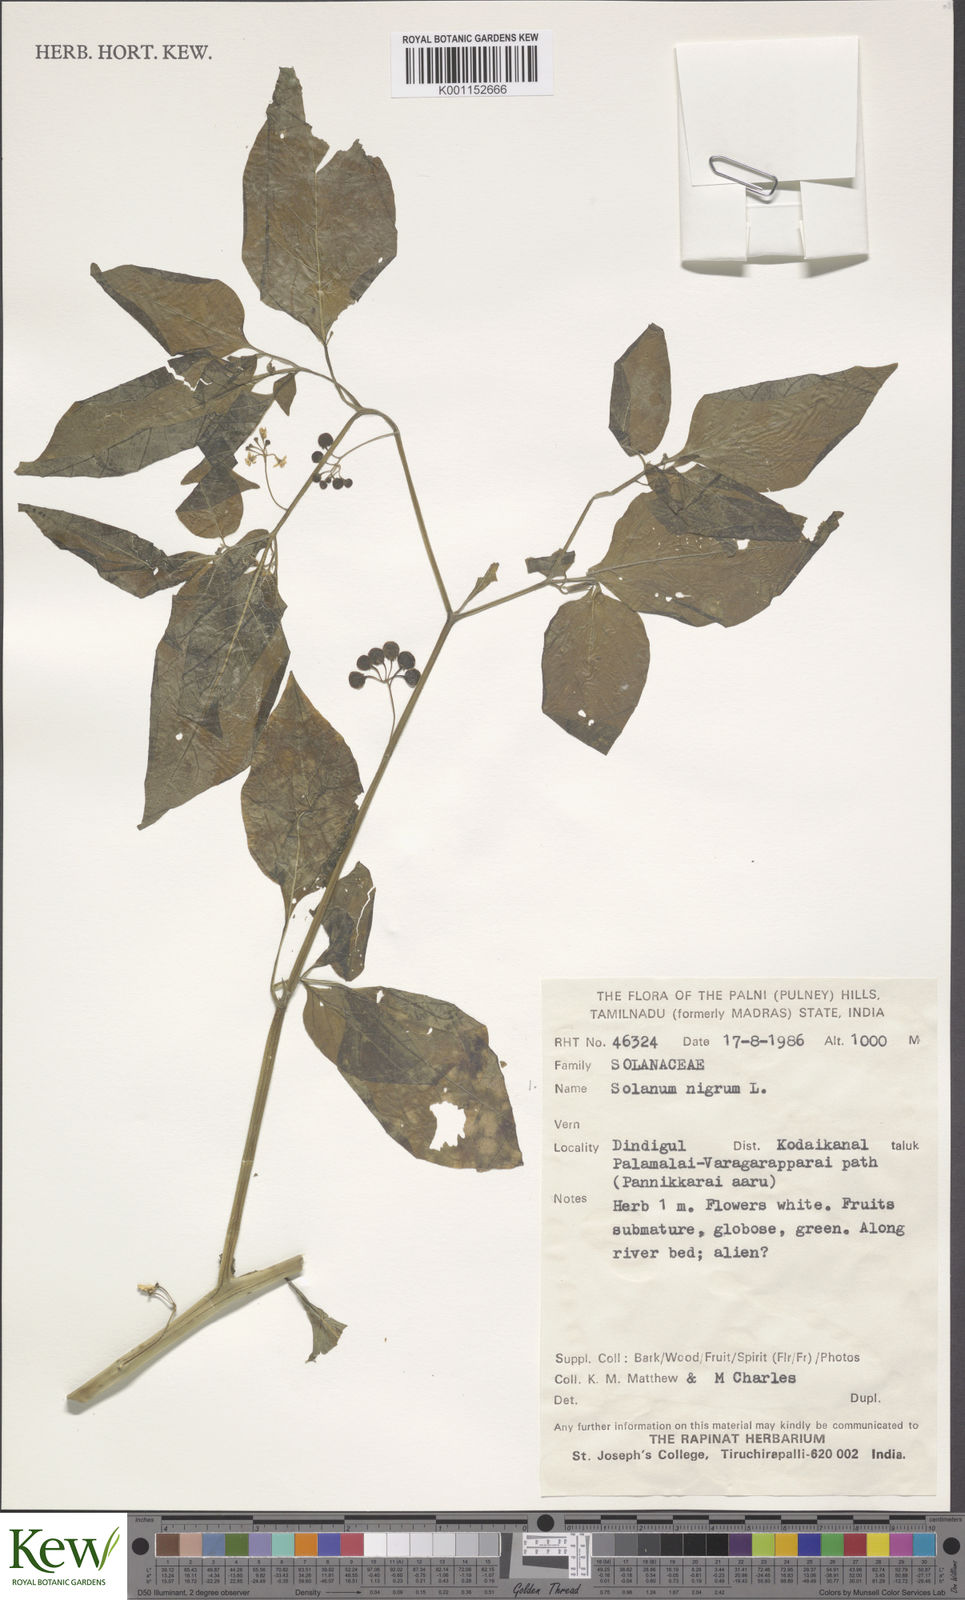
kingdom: Plantae
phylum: Tracheophyta
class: Magnoliopsida
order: Solanales
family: Solanaceae
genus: Solanum
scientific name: Solanum nigrum
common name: Black nightshade
